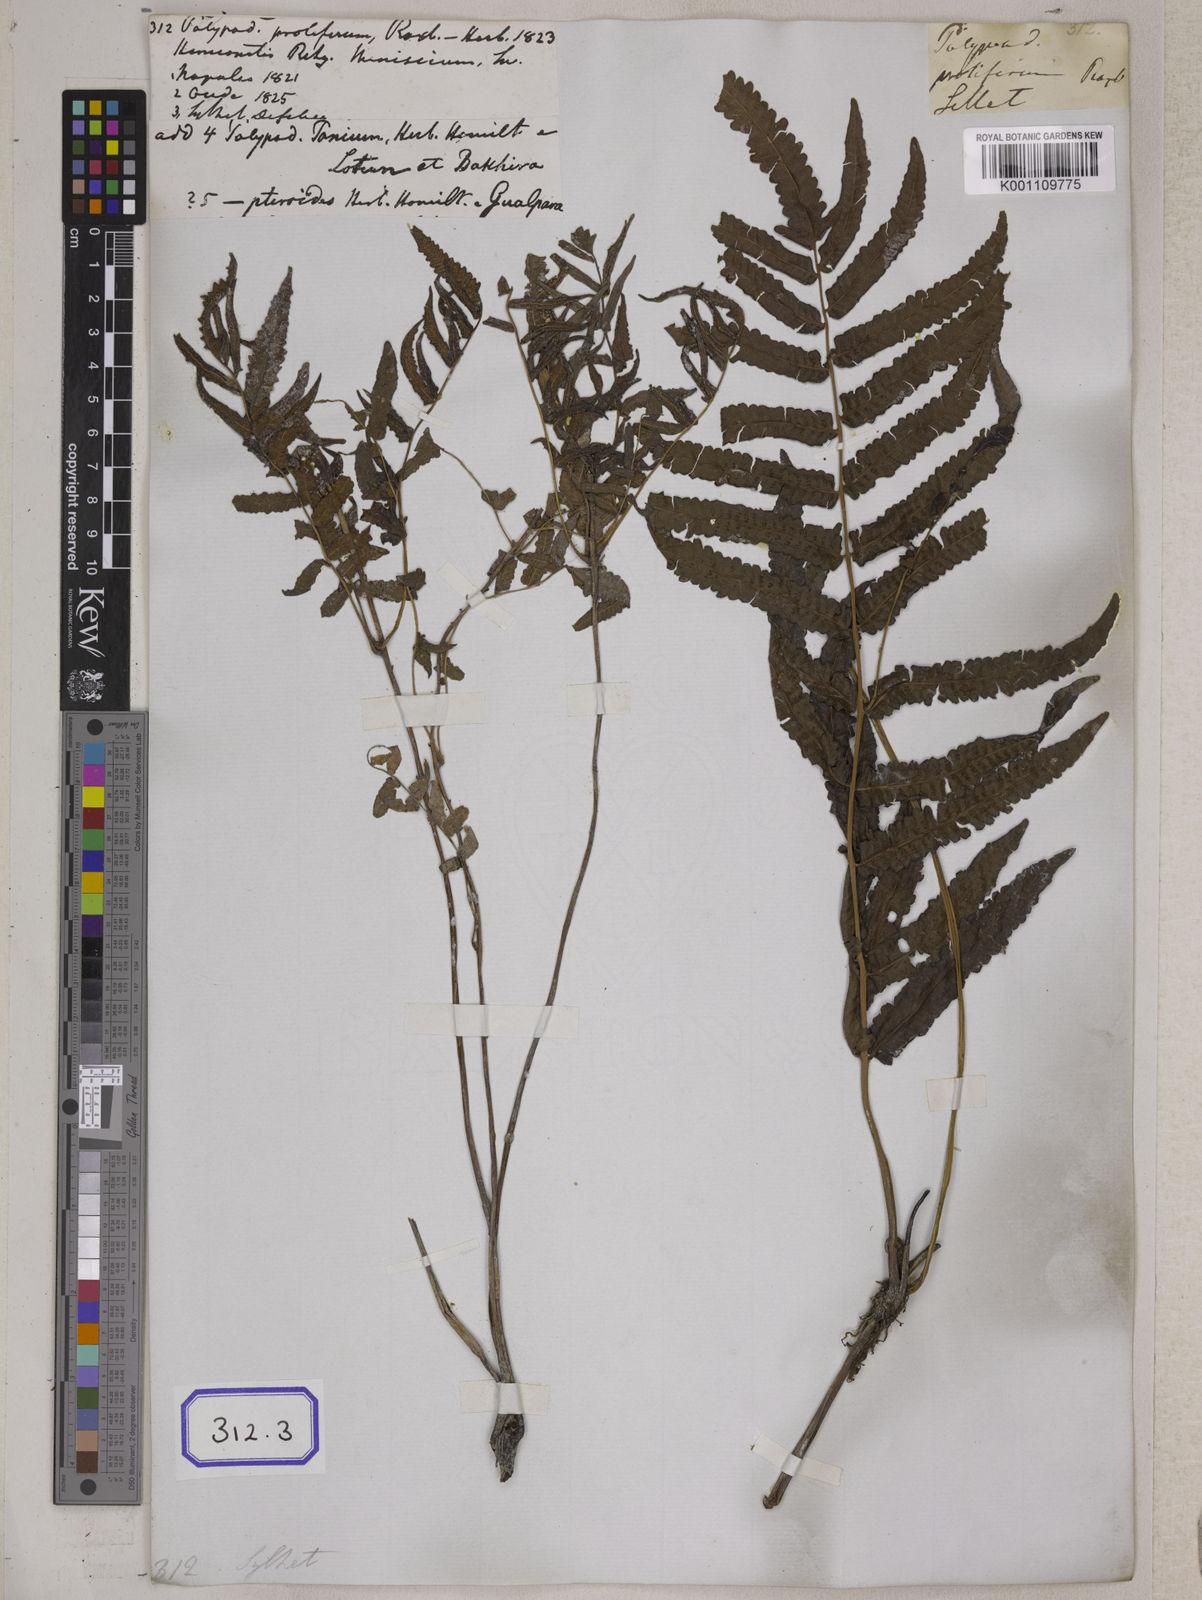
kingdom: Plantae
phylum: Tracheophyta
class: Polypodiopsida
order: Polypodiales
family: Polypodiaceae
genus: Polypodium
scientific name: Polypodium
